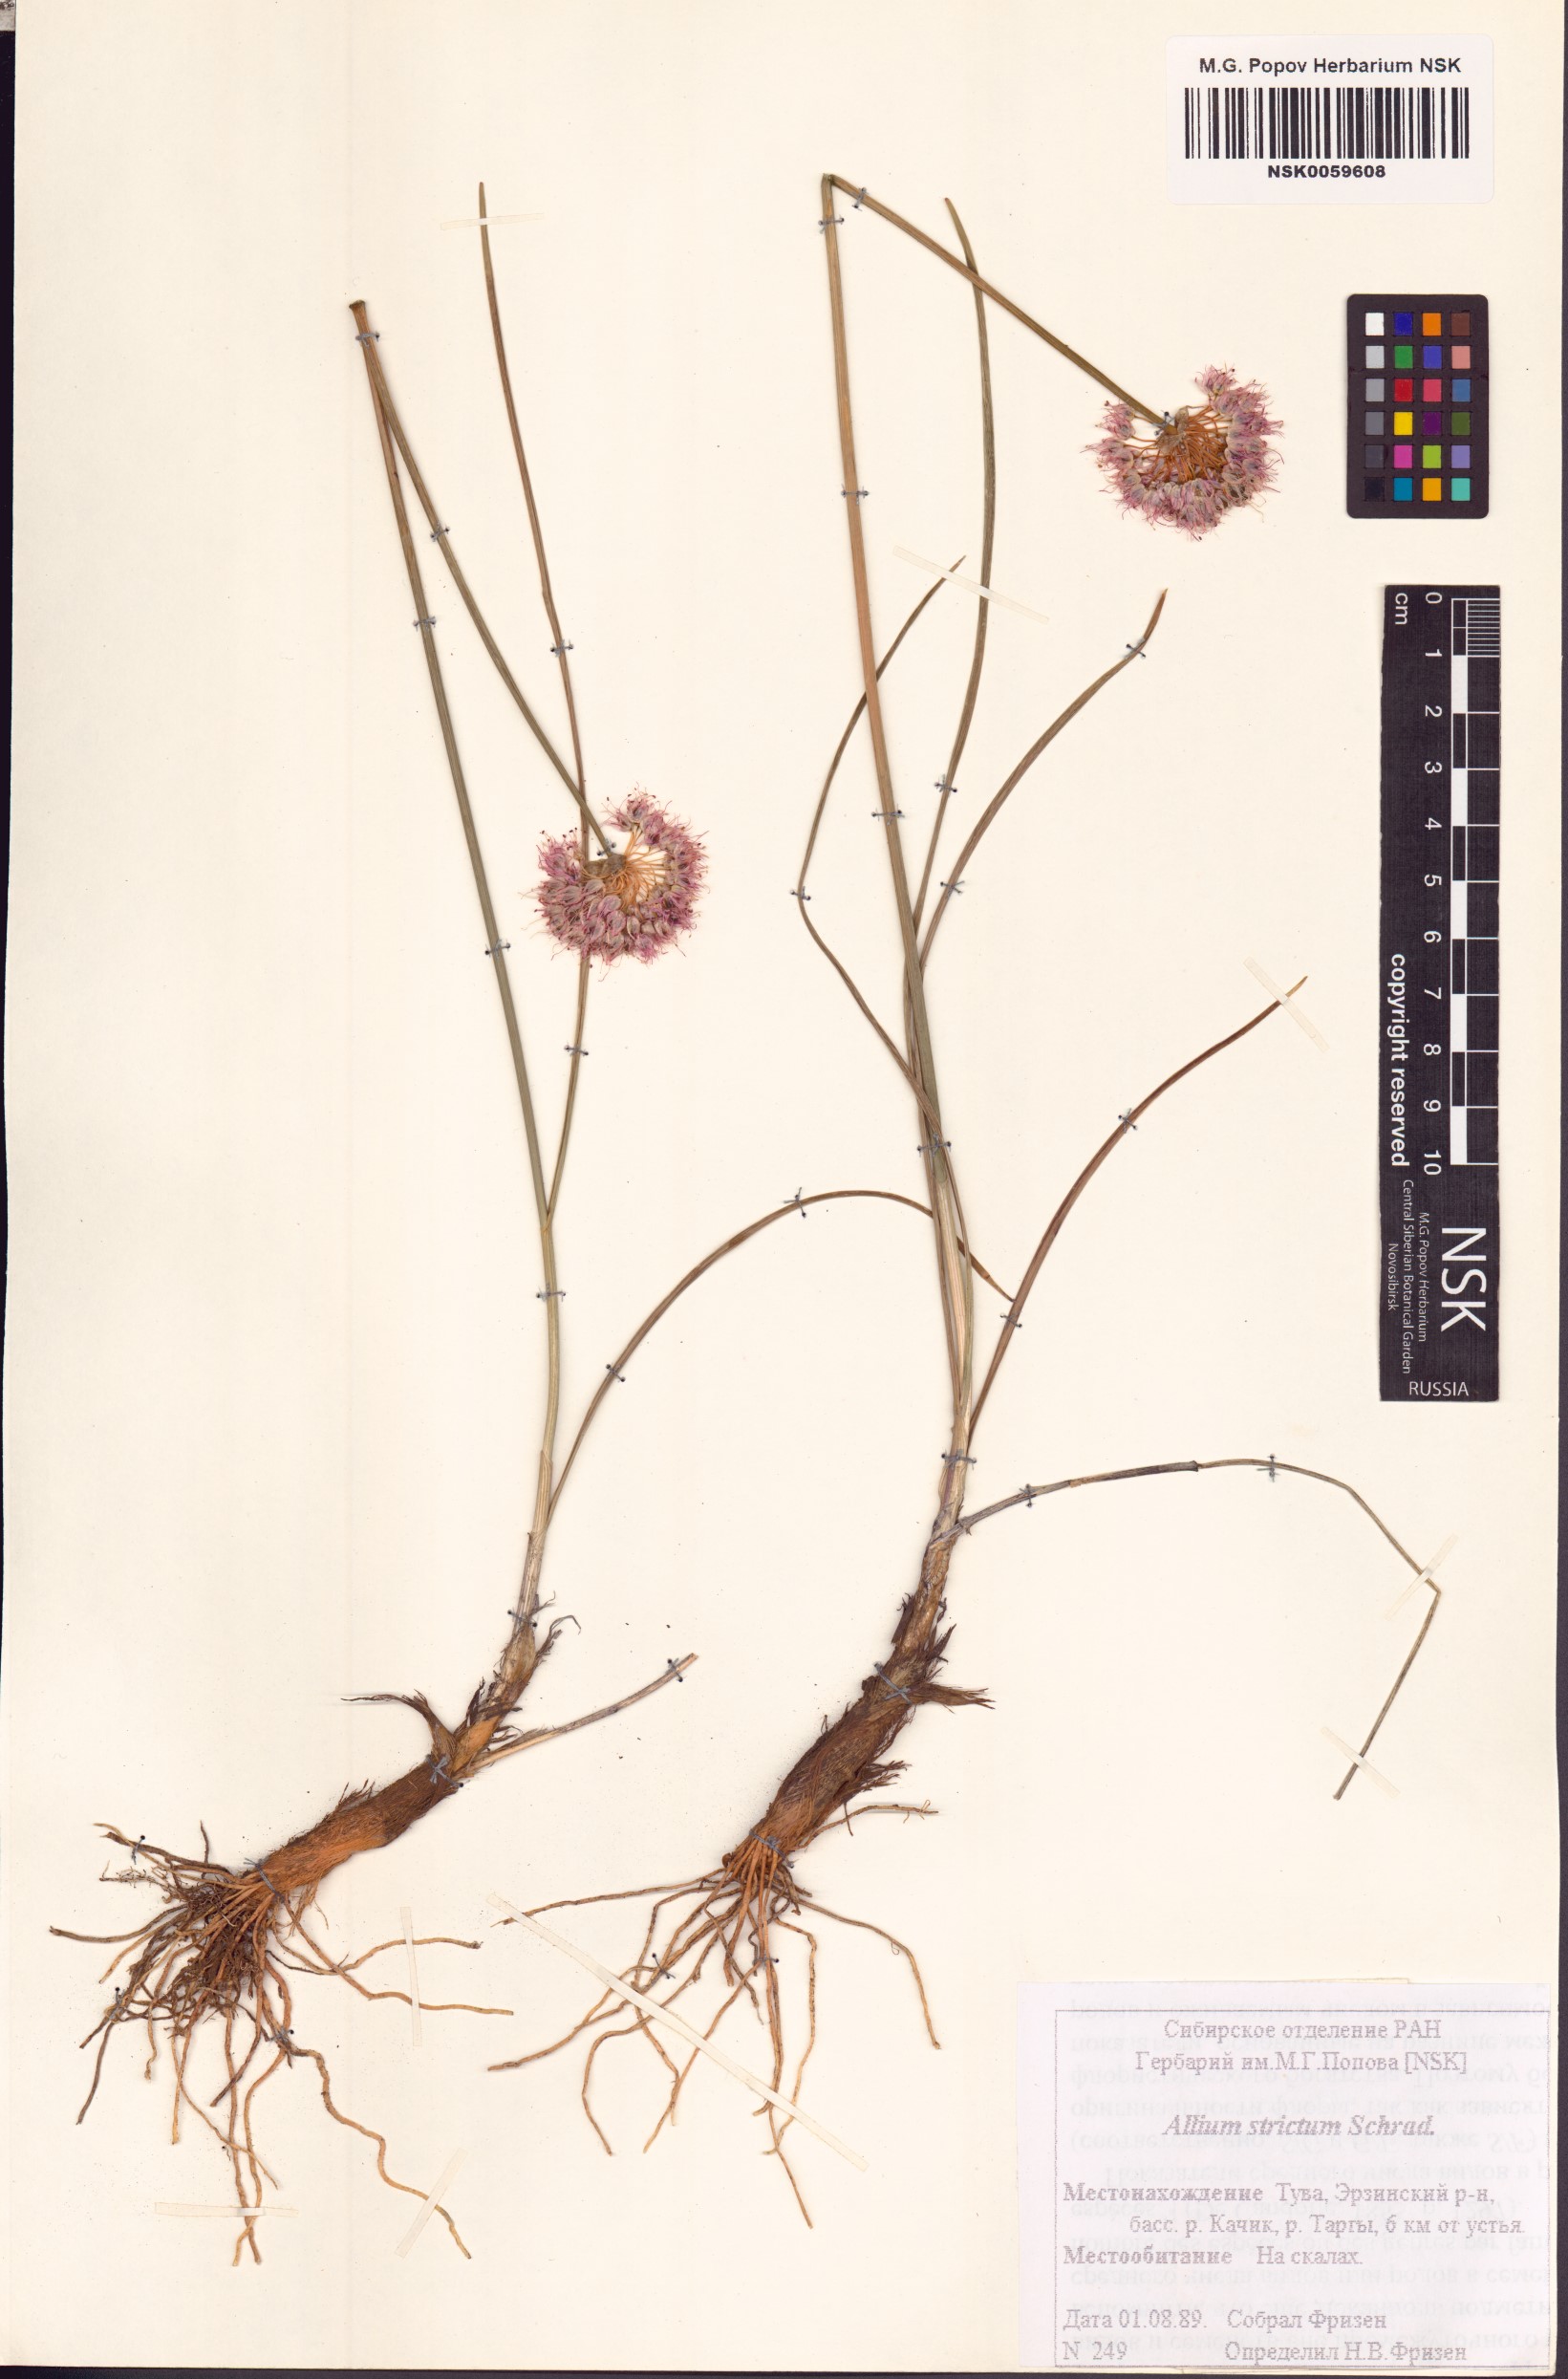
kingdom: Plantae
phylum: Tracheophyta
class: Liliopsida
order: Asparagales
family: Amaryllidaceae
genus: Allium
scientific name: Allium strictum
